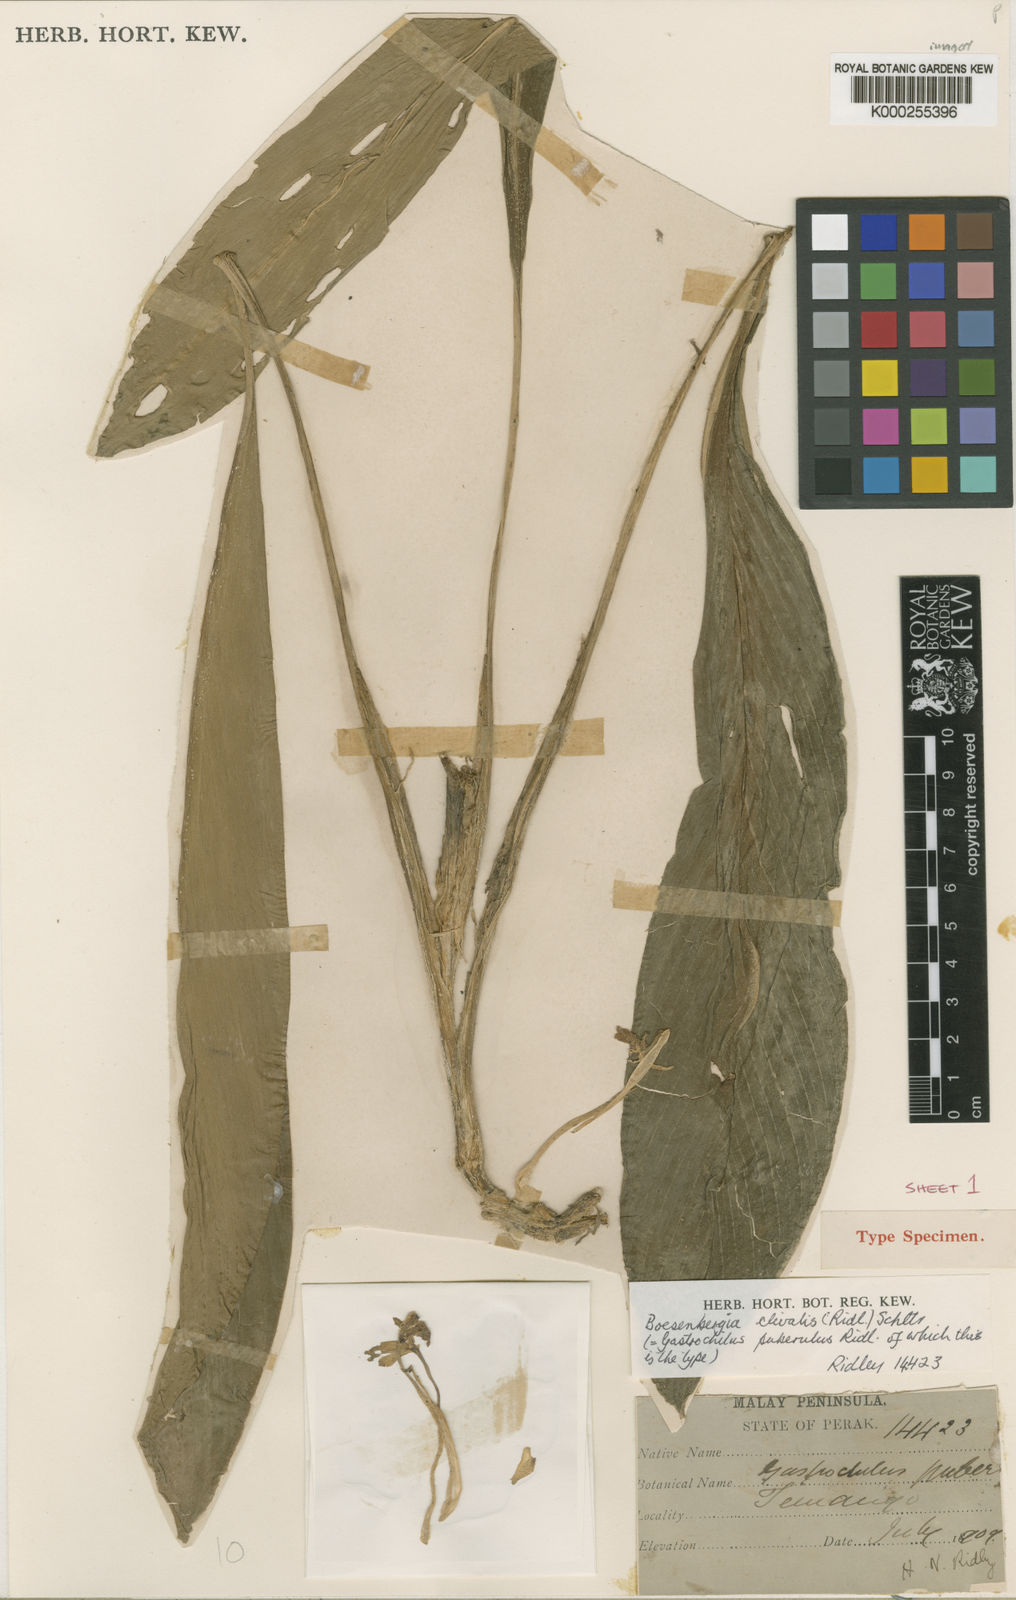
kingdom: Plantae
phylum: Tracheophyta
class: Liliopsida
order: Zingiberales
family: Zingiberaceae
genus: Boesenbergia
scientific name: Boesenbergia clivalis
